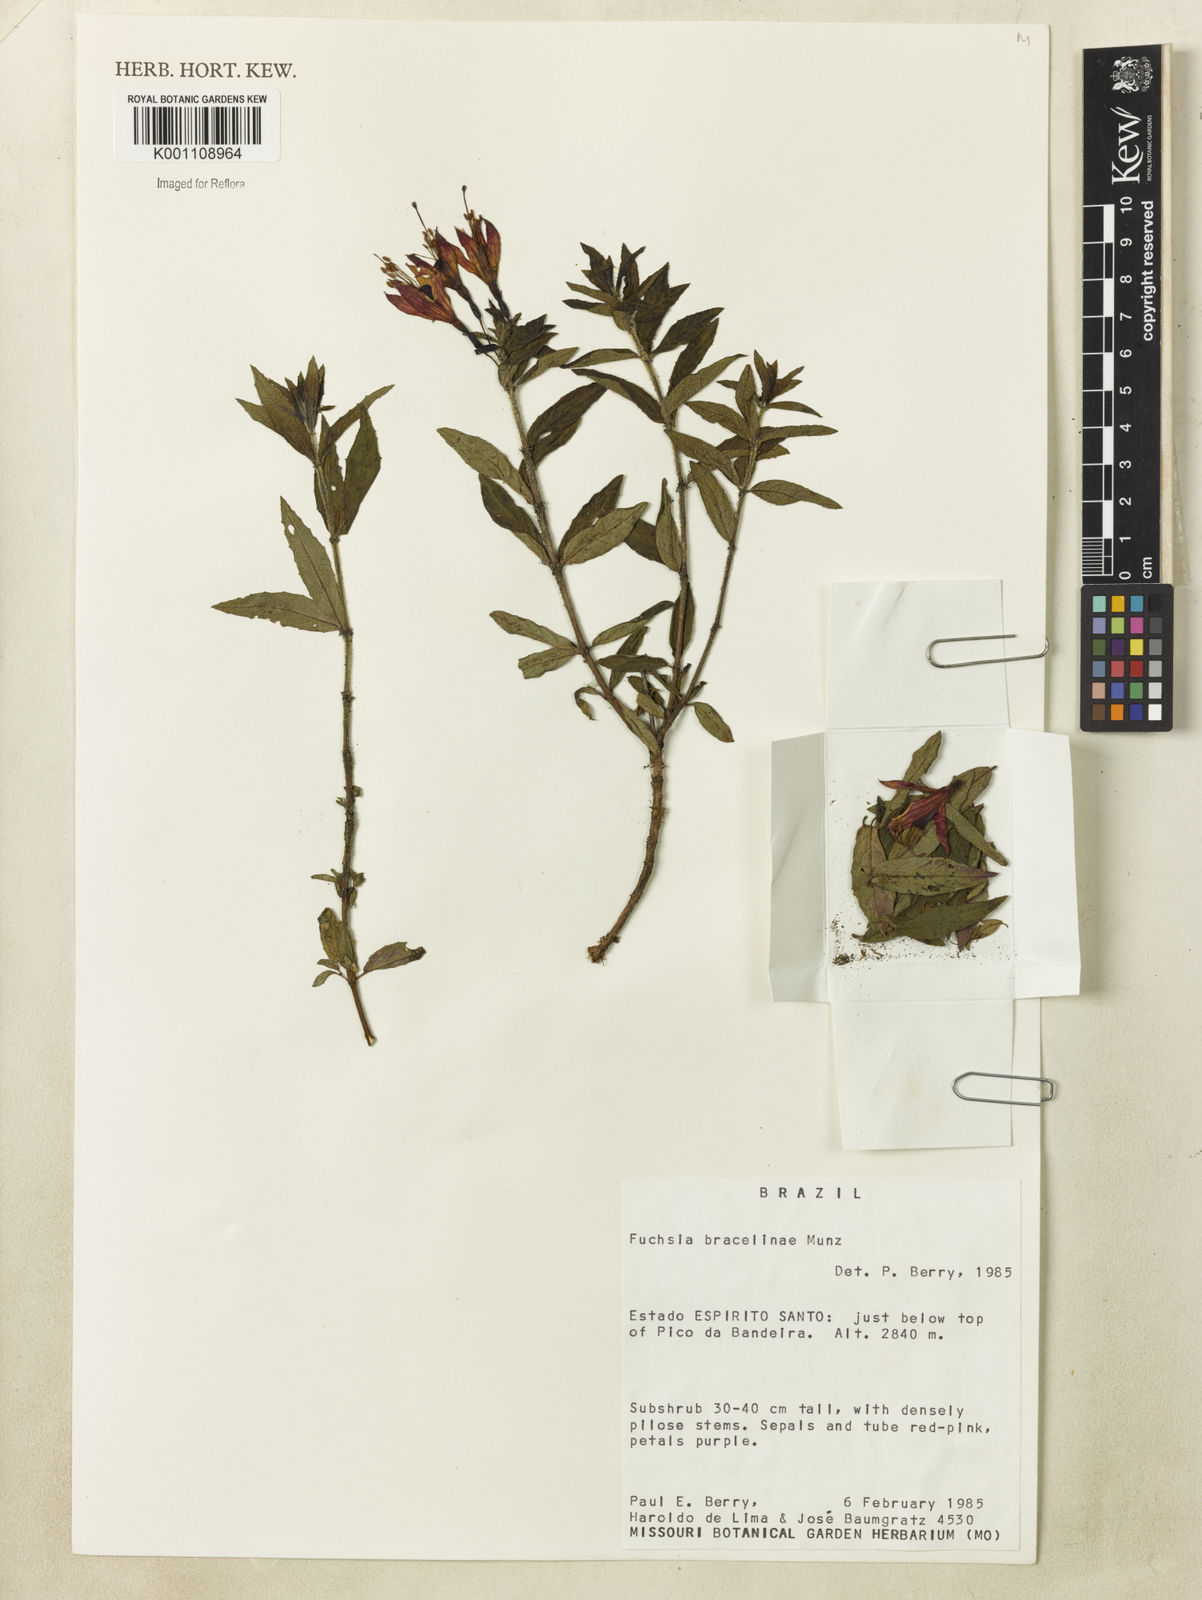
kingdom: Plantae
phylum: Tracheophyta
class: Magnoliopsida
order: Myrtales
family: Onagraceae
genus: Fuchsia
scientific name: Fuchsia bracelinae
